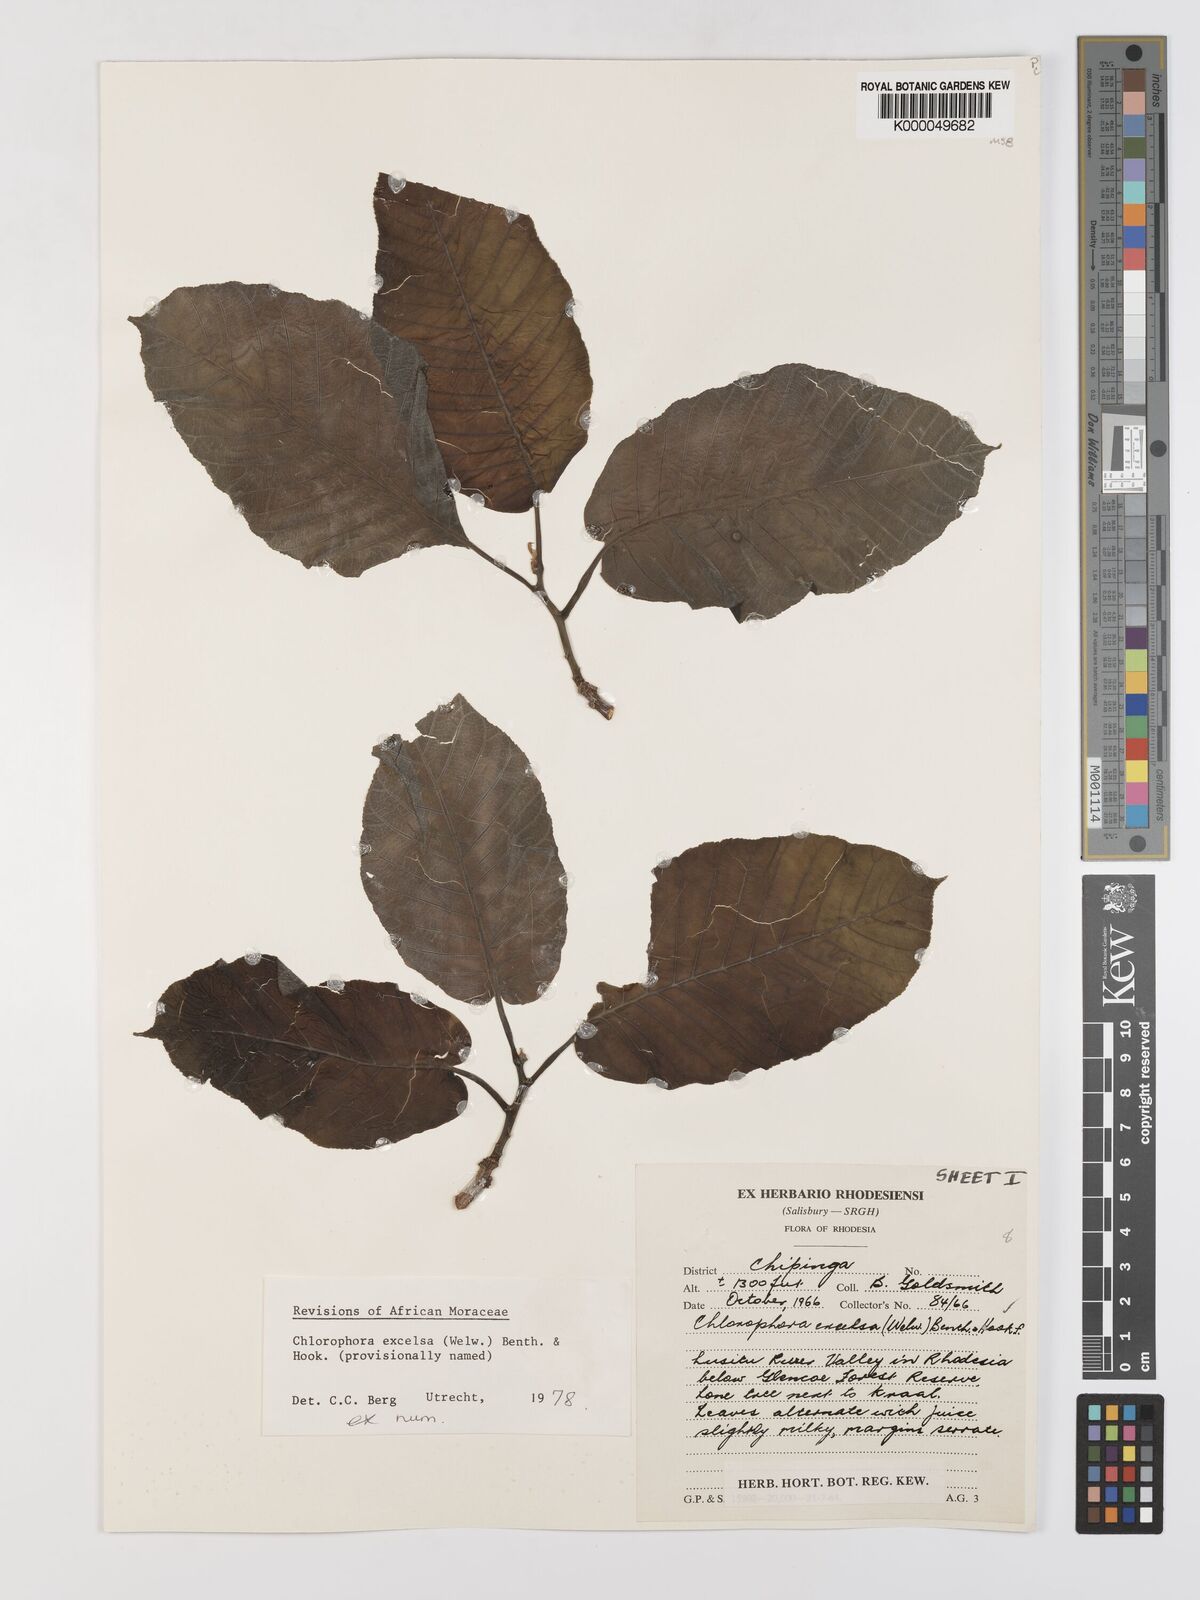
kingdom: Plantae
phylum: Tracheophyta
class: Magnoliopsida
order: Rosales
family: Moraceae
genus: Milicia
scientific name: Milicia excelsa
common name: African teak
